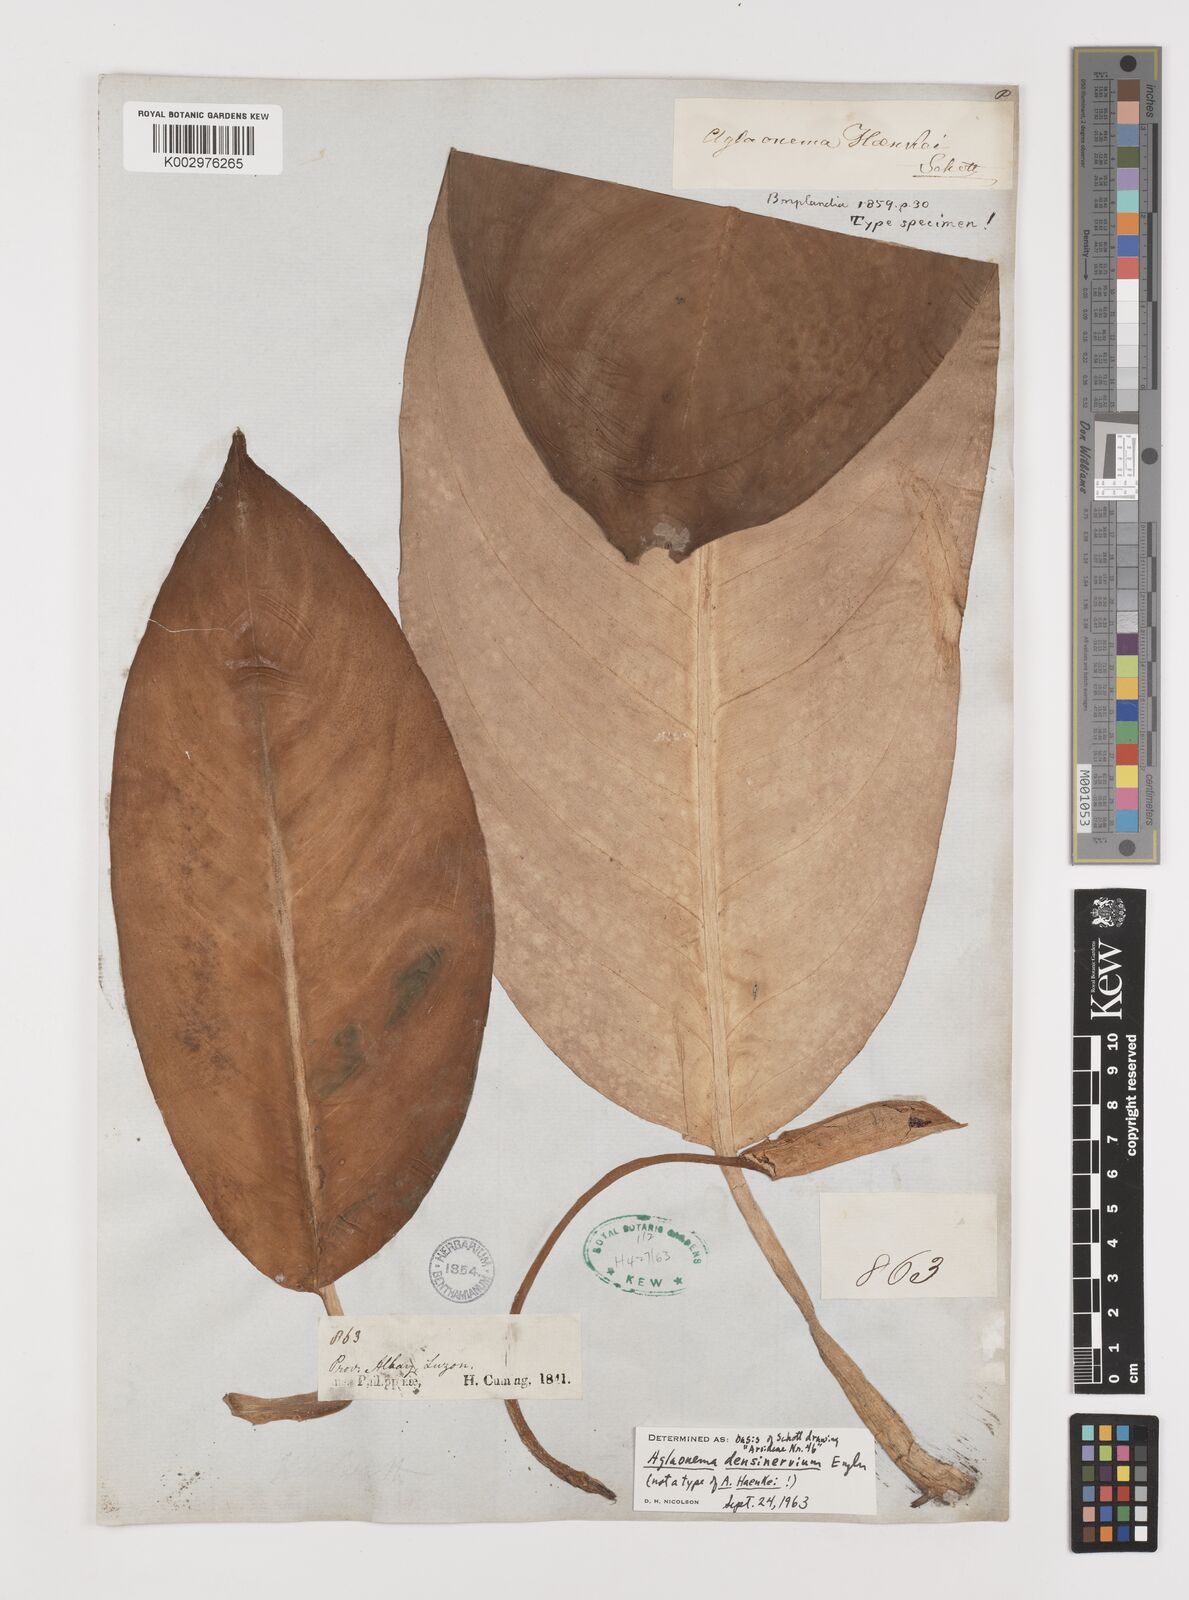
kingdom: Plantae
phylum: Tracheophyta
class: Liliopsida
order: Alismatales
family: Araceae
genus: Aglaonema
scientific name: Aglaonema densinervium
